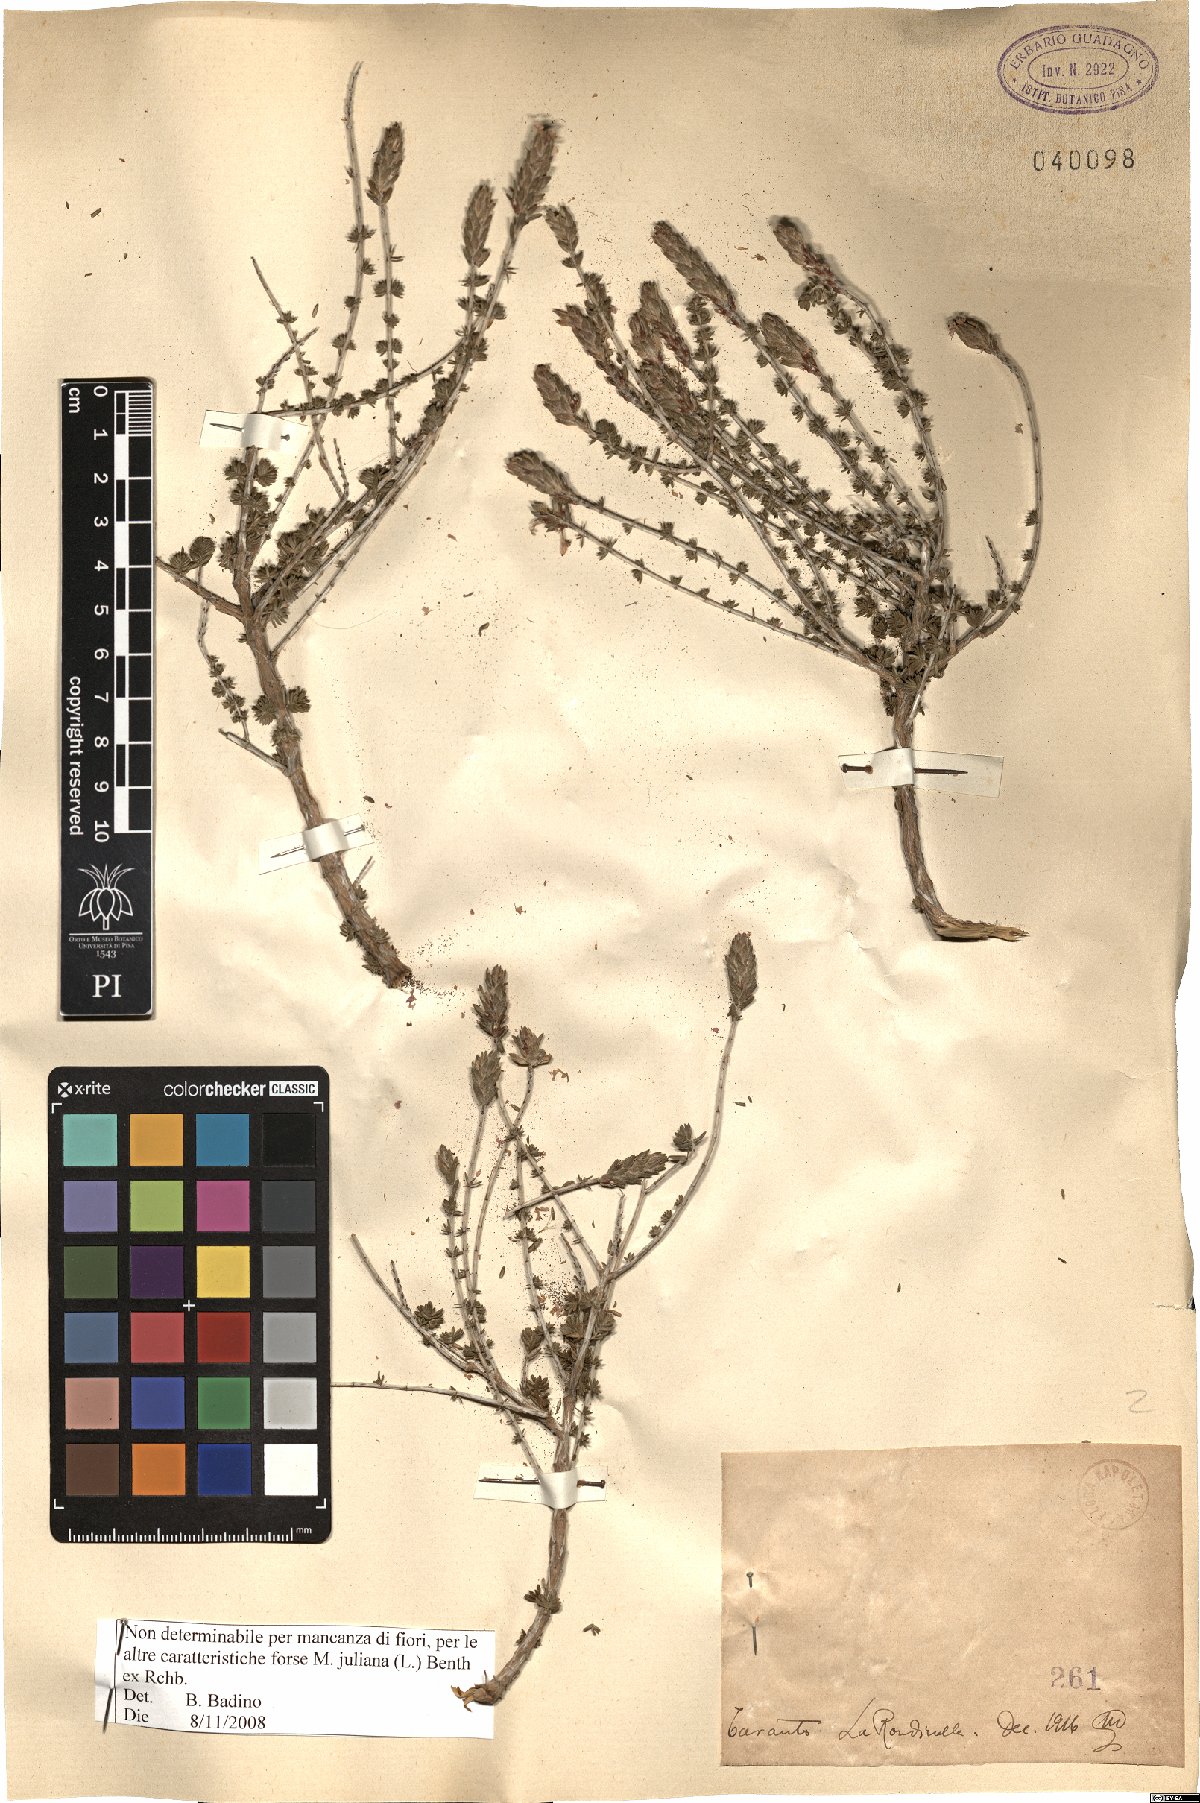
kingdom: Plantae
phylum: Tracheophyta
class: Magnoliopsida
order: Lamiales
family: Lamiaceae
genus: Micromeria
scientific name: Micromeria juliana
